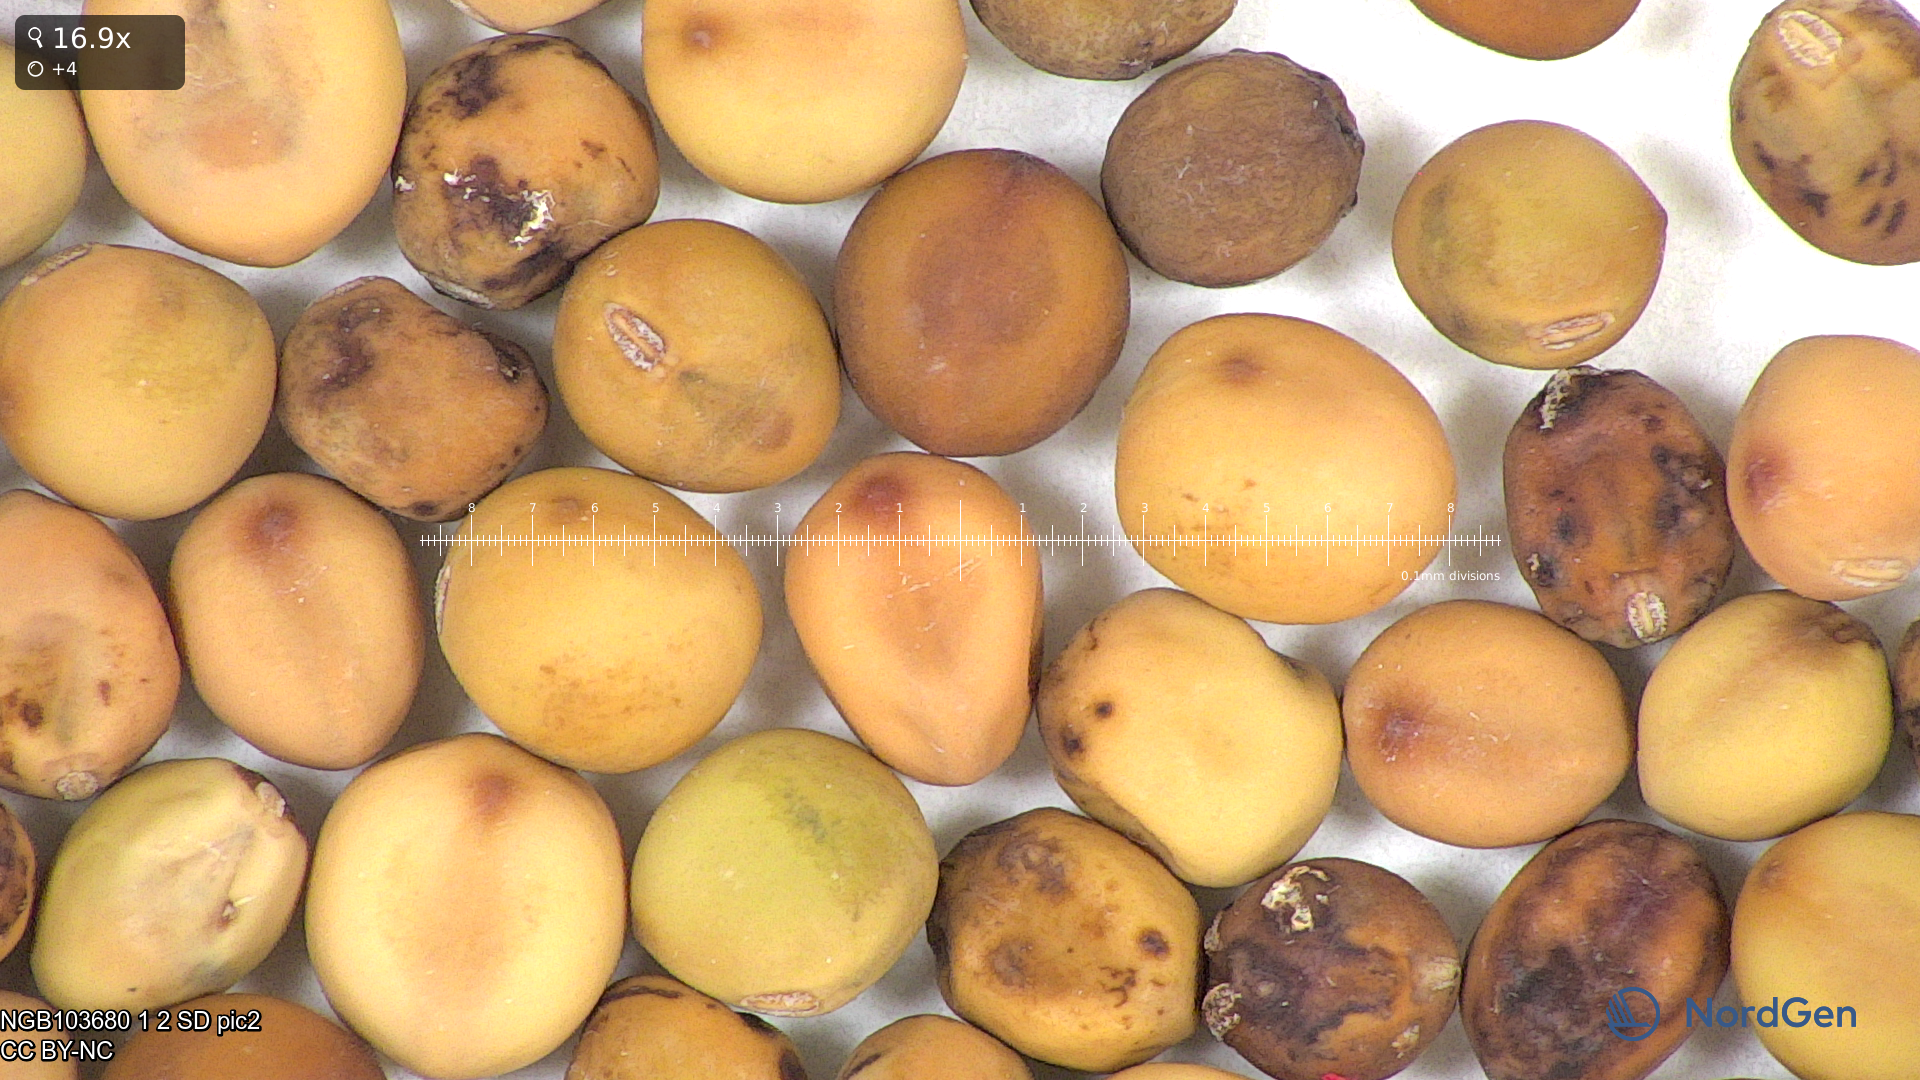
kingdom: Plantae
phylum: Tracheophyta
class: Magnoliopsida
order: Fabales
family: Fabaceae
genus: Lathyrus
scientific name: Lathyrus oleraceus
